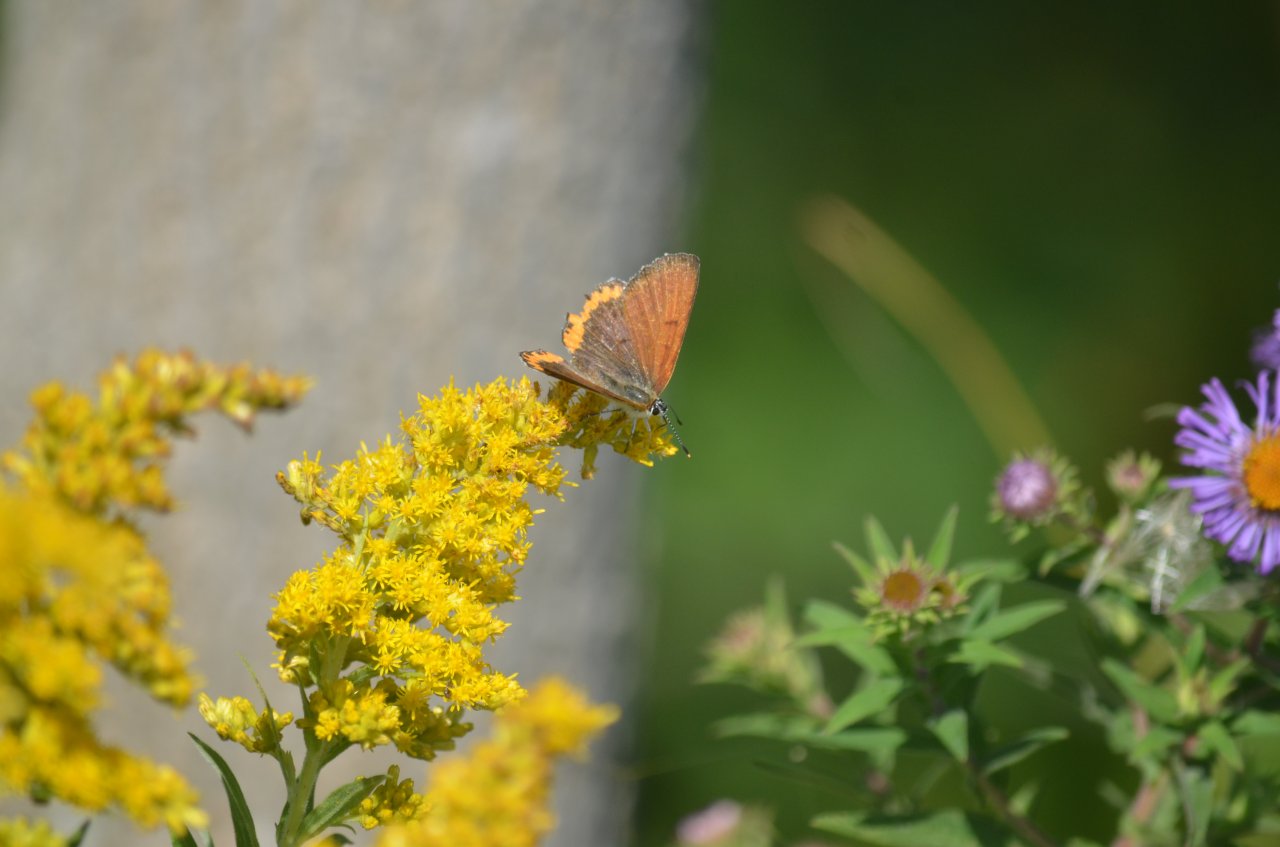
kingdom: Animalia
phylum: Arthropoda
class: Insecta
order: Lepidoptera
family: Sesiidae
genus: Sesia
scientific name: Sesia Lycaena hyllus
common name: Bronze Copper
